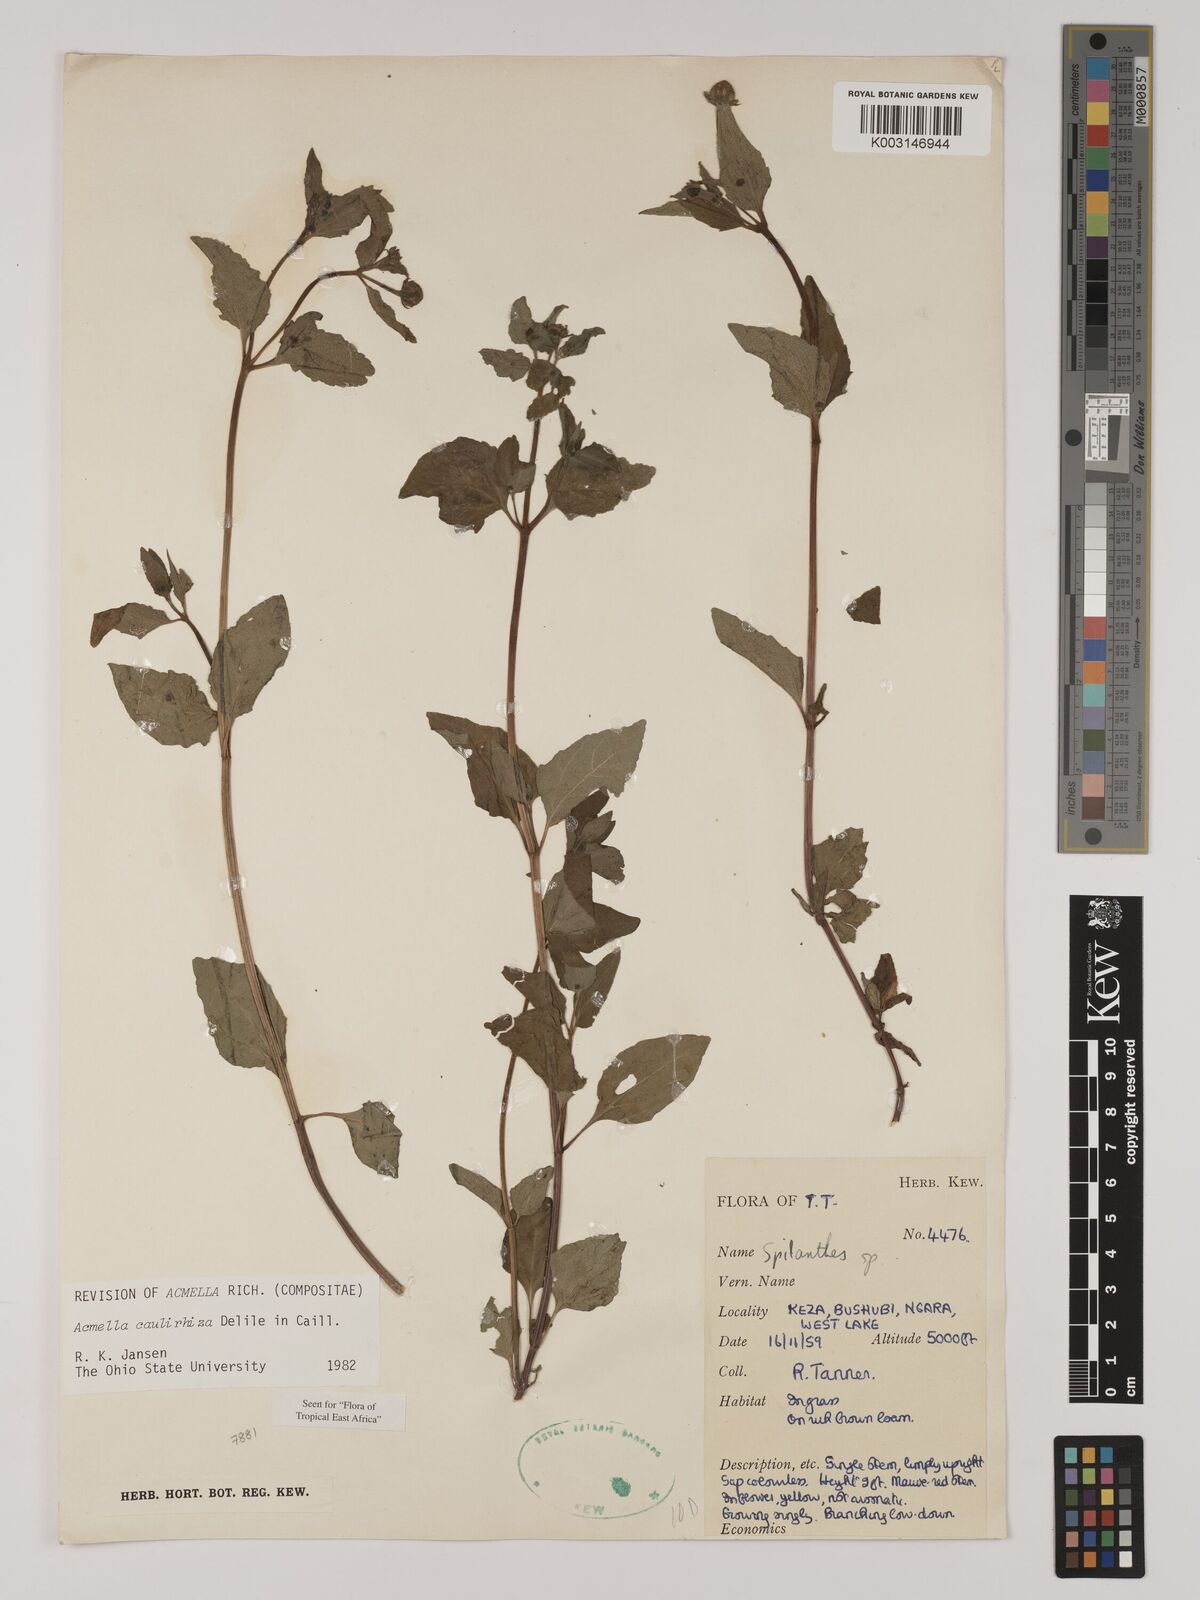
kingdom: Plantae
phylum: Tracheophyta
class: Magnoliopsida
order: Asterales
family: Asteraceae
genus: Acmella
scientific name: Acmella caulirhiza
